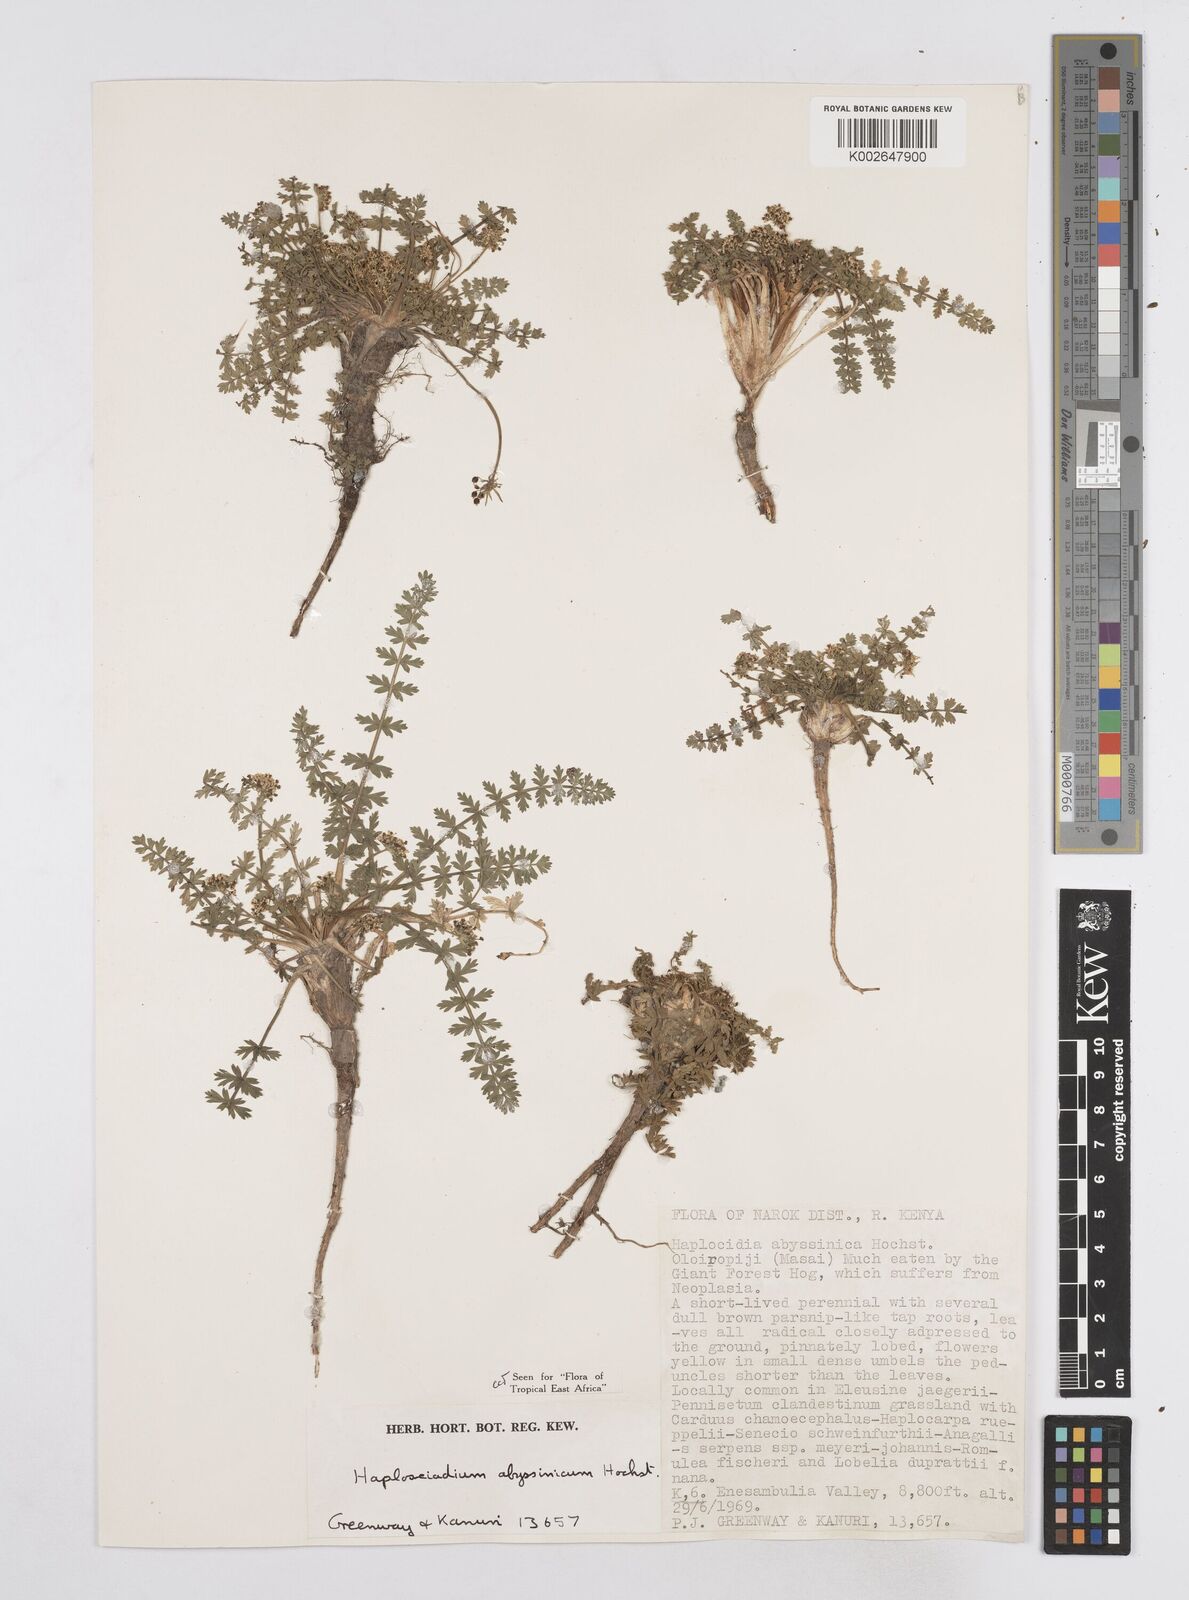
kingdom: Plantae
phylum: Tracheophyta
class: Magnoliopsida
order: Apiales
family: Apiaceae
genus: Haplosciadium
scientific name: Haplosciadium abyssinicum
